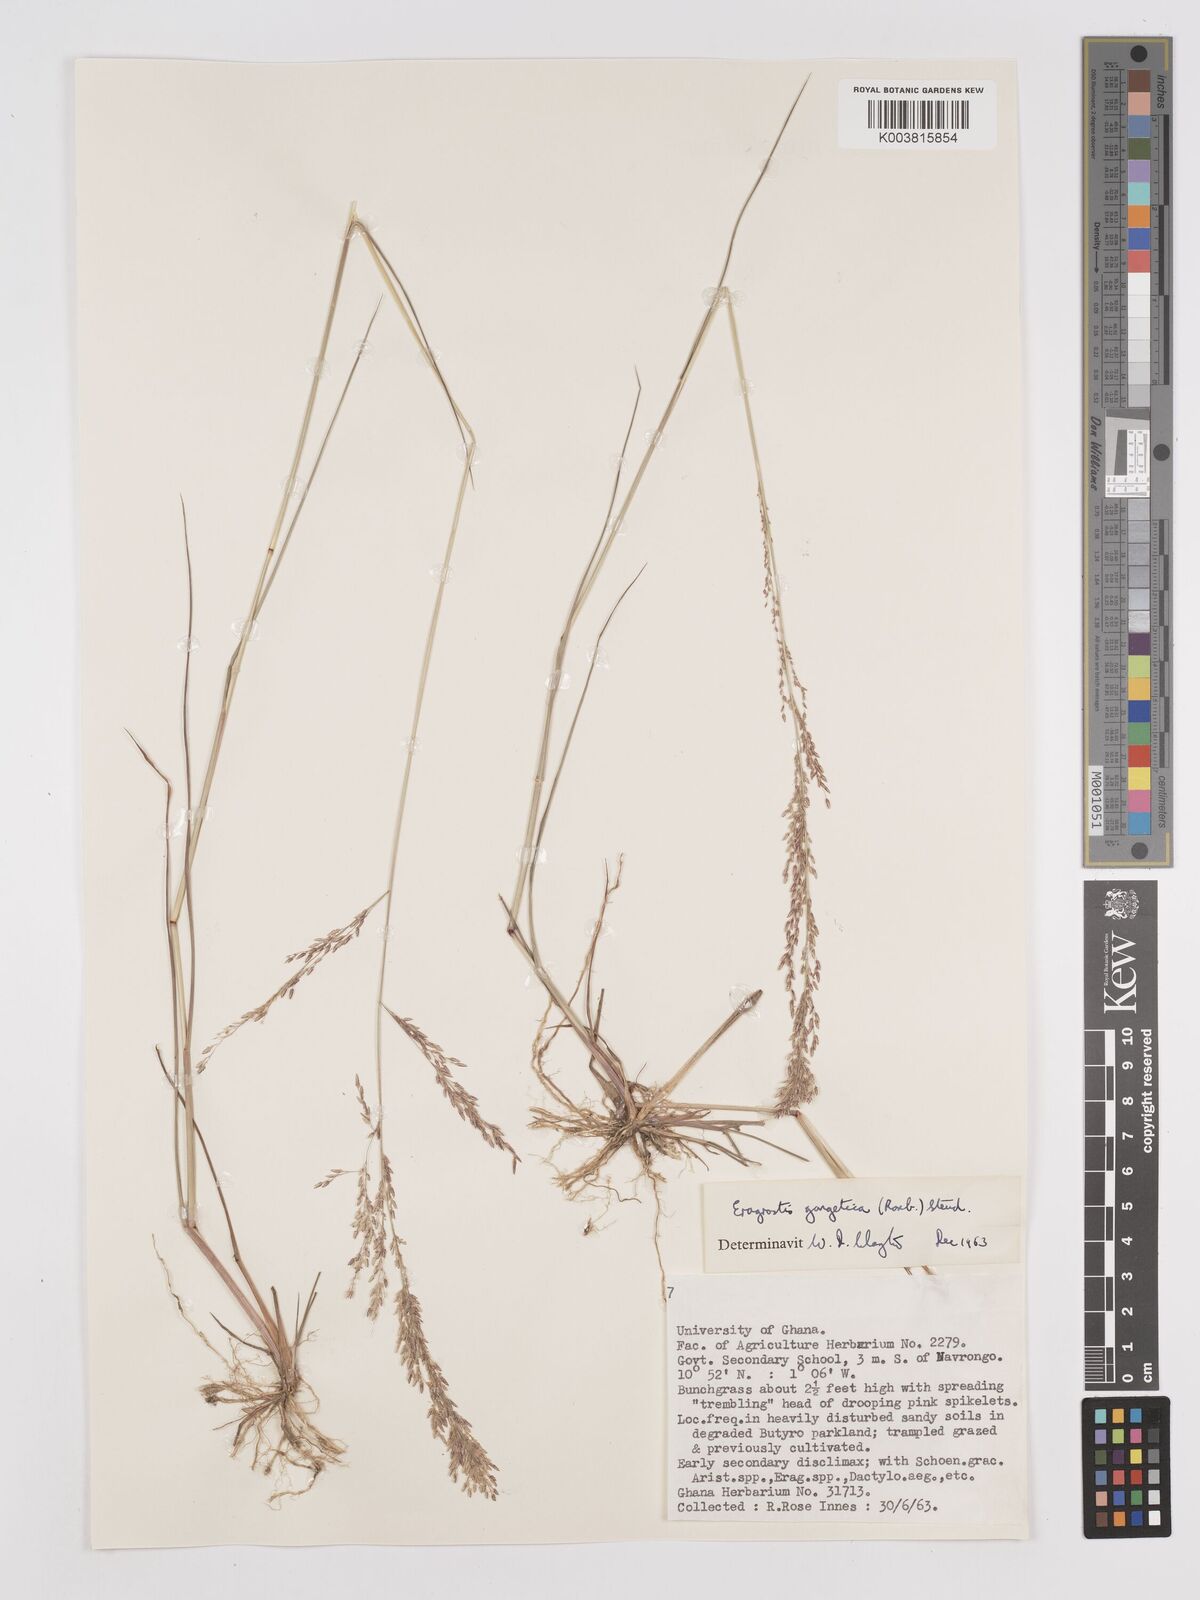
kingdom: Plantae
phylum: Tracheophyta
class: Liliopsida
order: Poales
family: Poaceae
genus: Eragrostis
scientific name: Eragrostis gangetica
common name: Slimflower lovegrass
